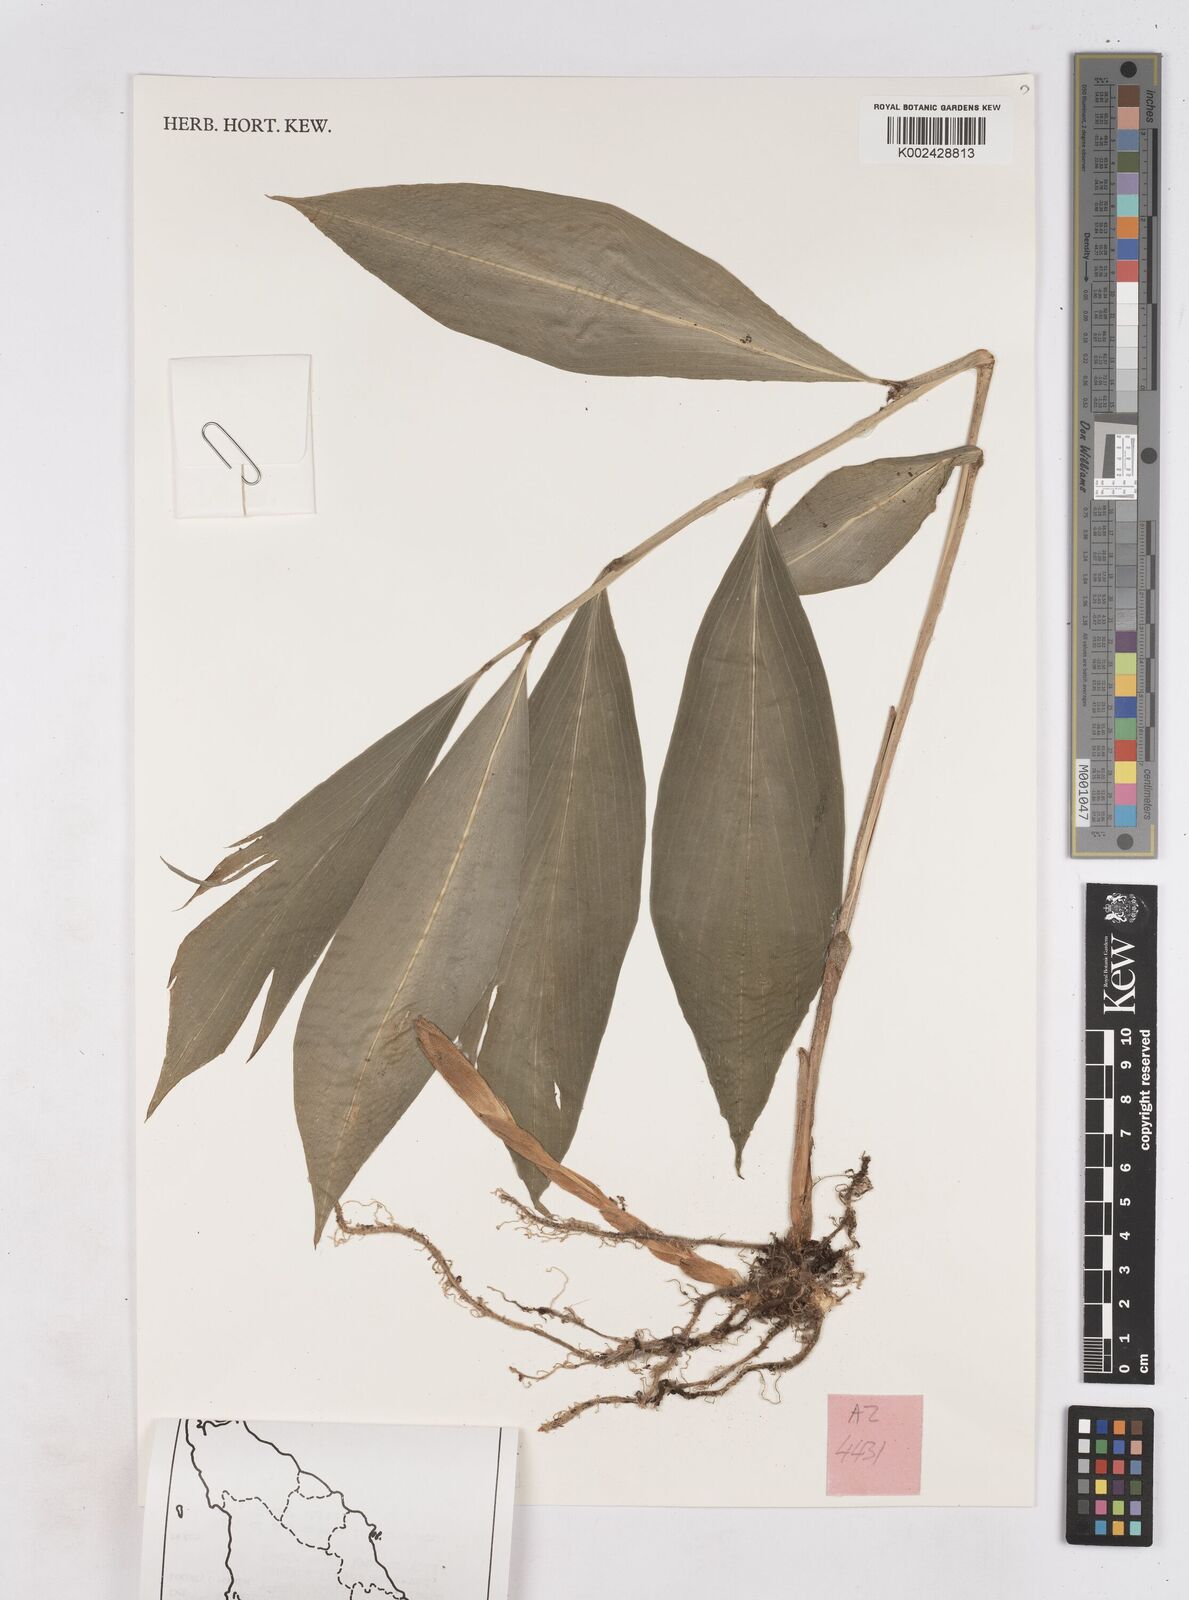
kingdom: Plantae
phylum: Tracheophyta
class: Liliopsida
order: Zingiberales
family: Zingiberaceae
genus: Zingiber
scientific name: Zingiber griffithii
